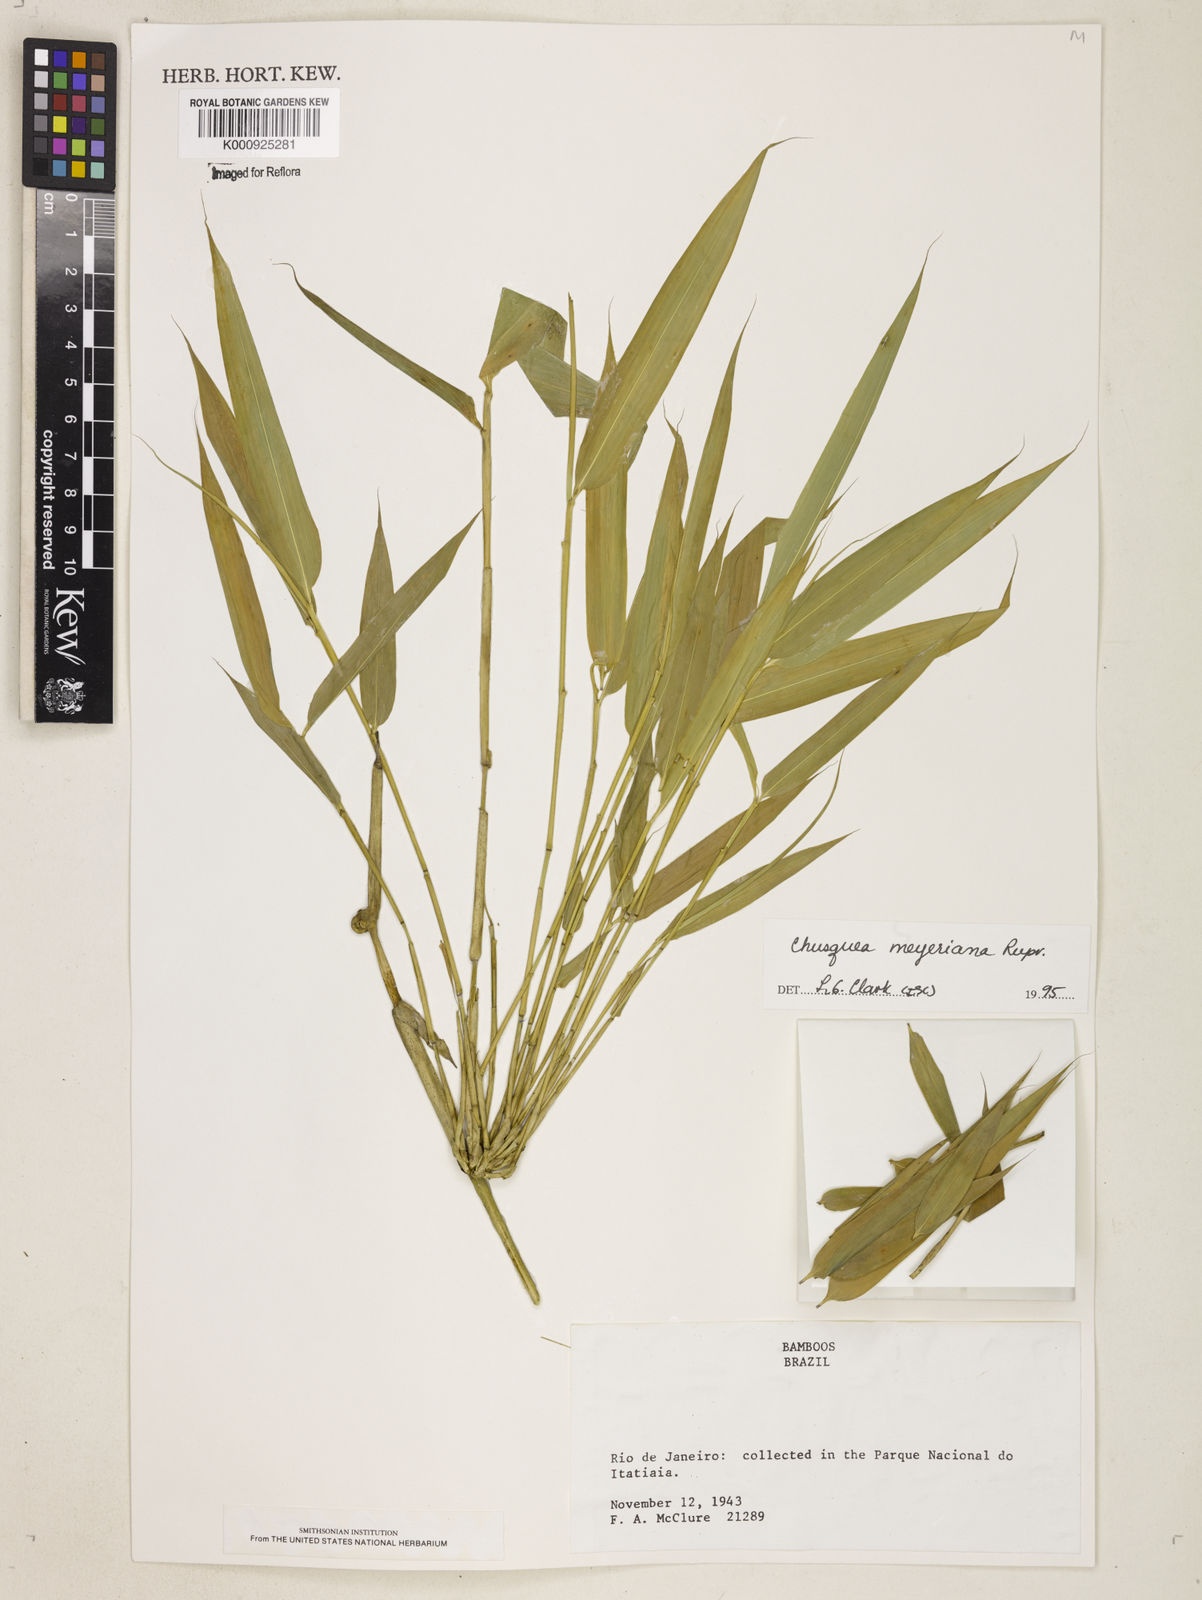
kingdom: Plantae
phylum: Tracheophyta
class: Liliopsida
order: Poales
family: Poaceae
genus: Chusquea
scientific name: Chusquea
